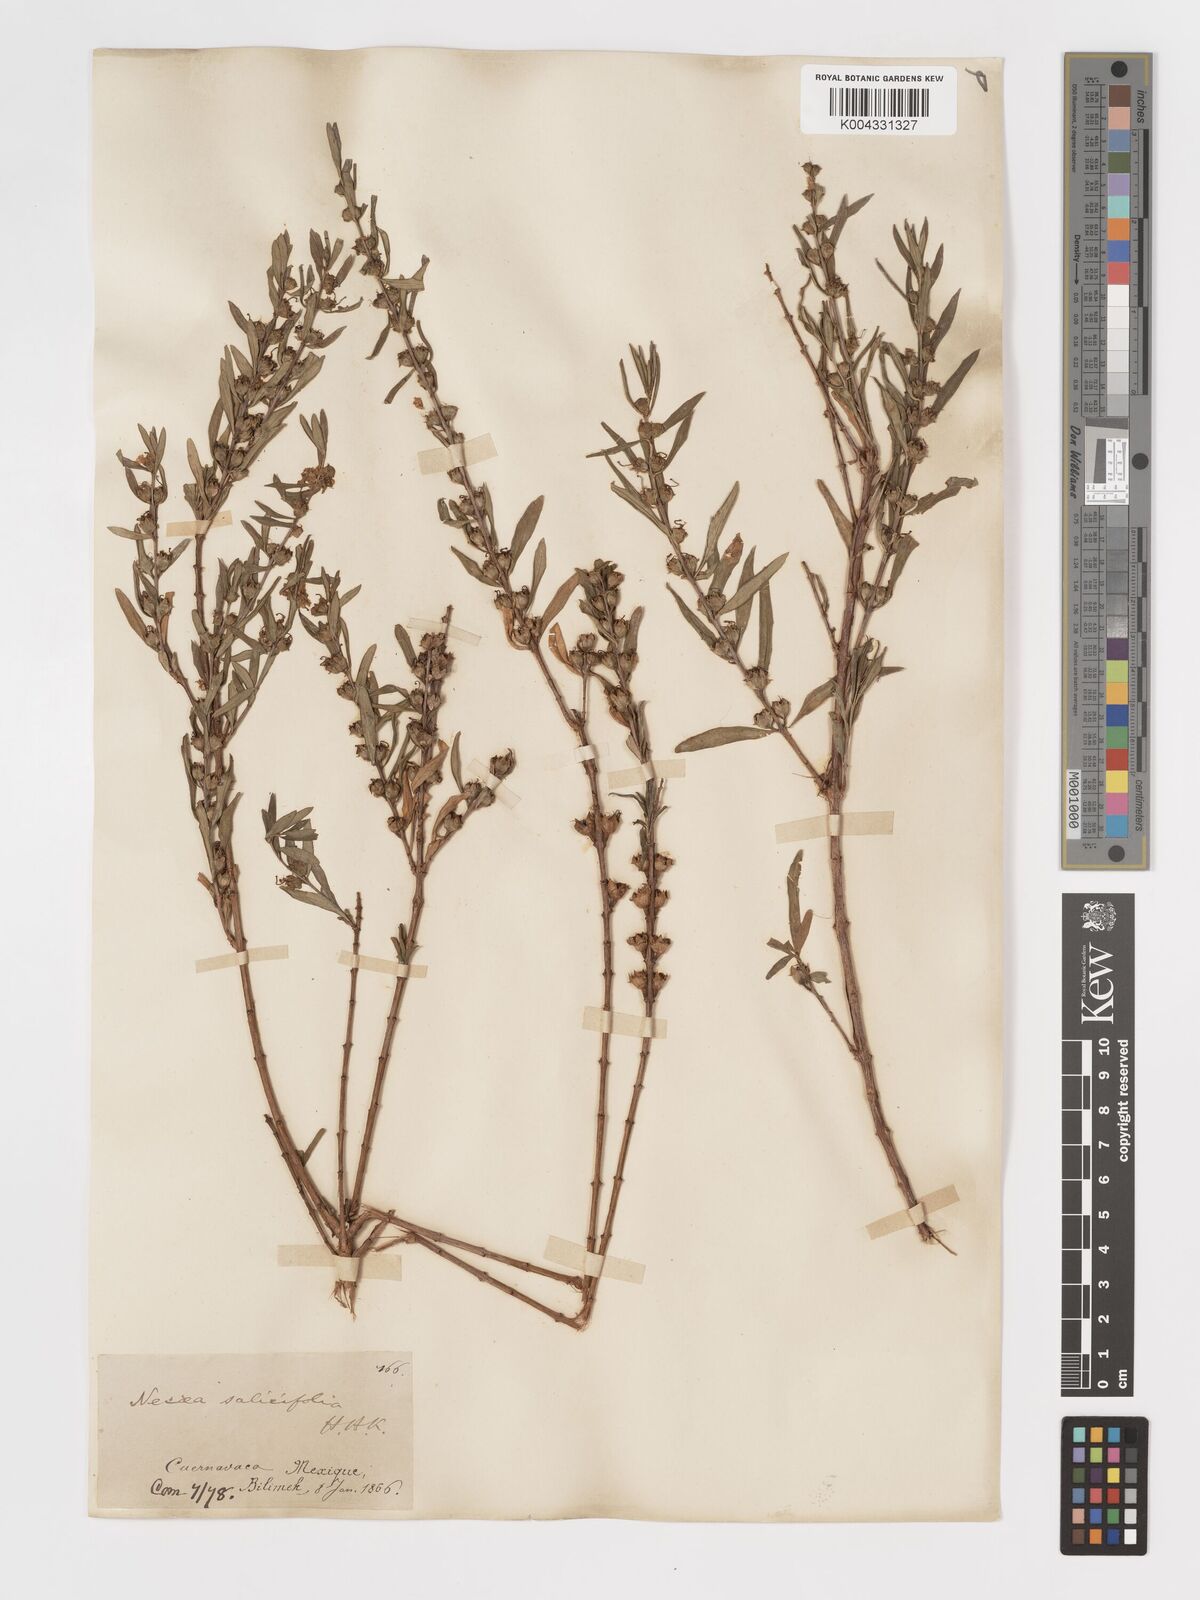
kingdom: Plantae
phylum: Tracheophyta
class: Magnoliopsida
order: Myrtales
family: Lythraceae
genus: Heimia
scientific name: Heimia salicifolia
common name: Willow-leaf heimia
